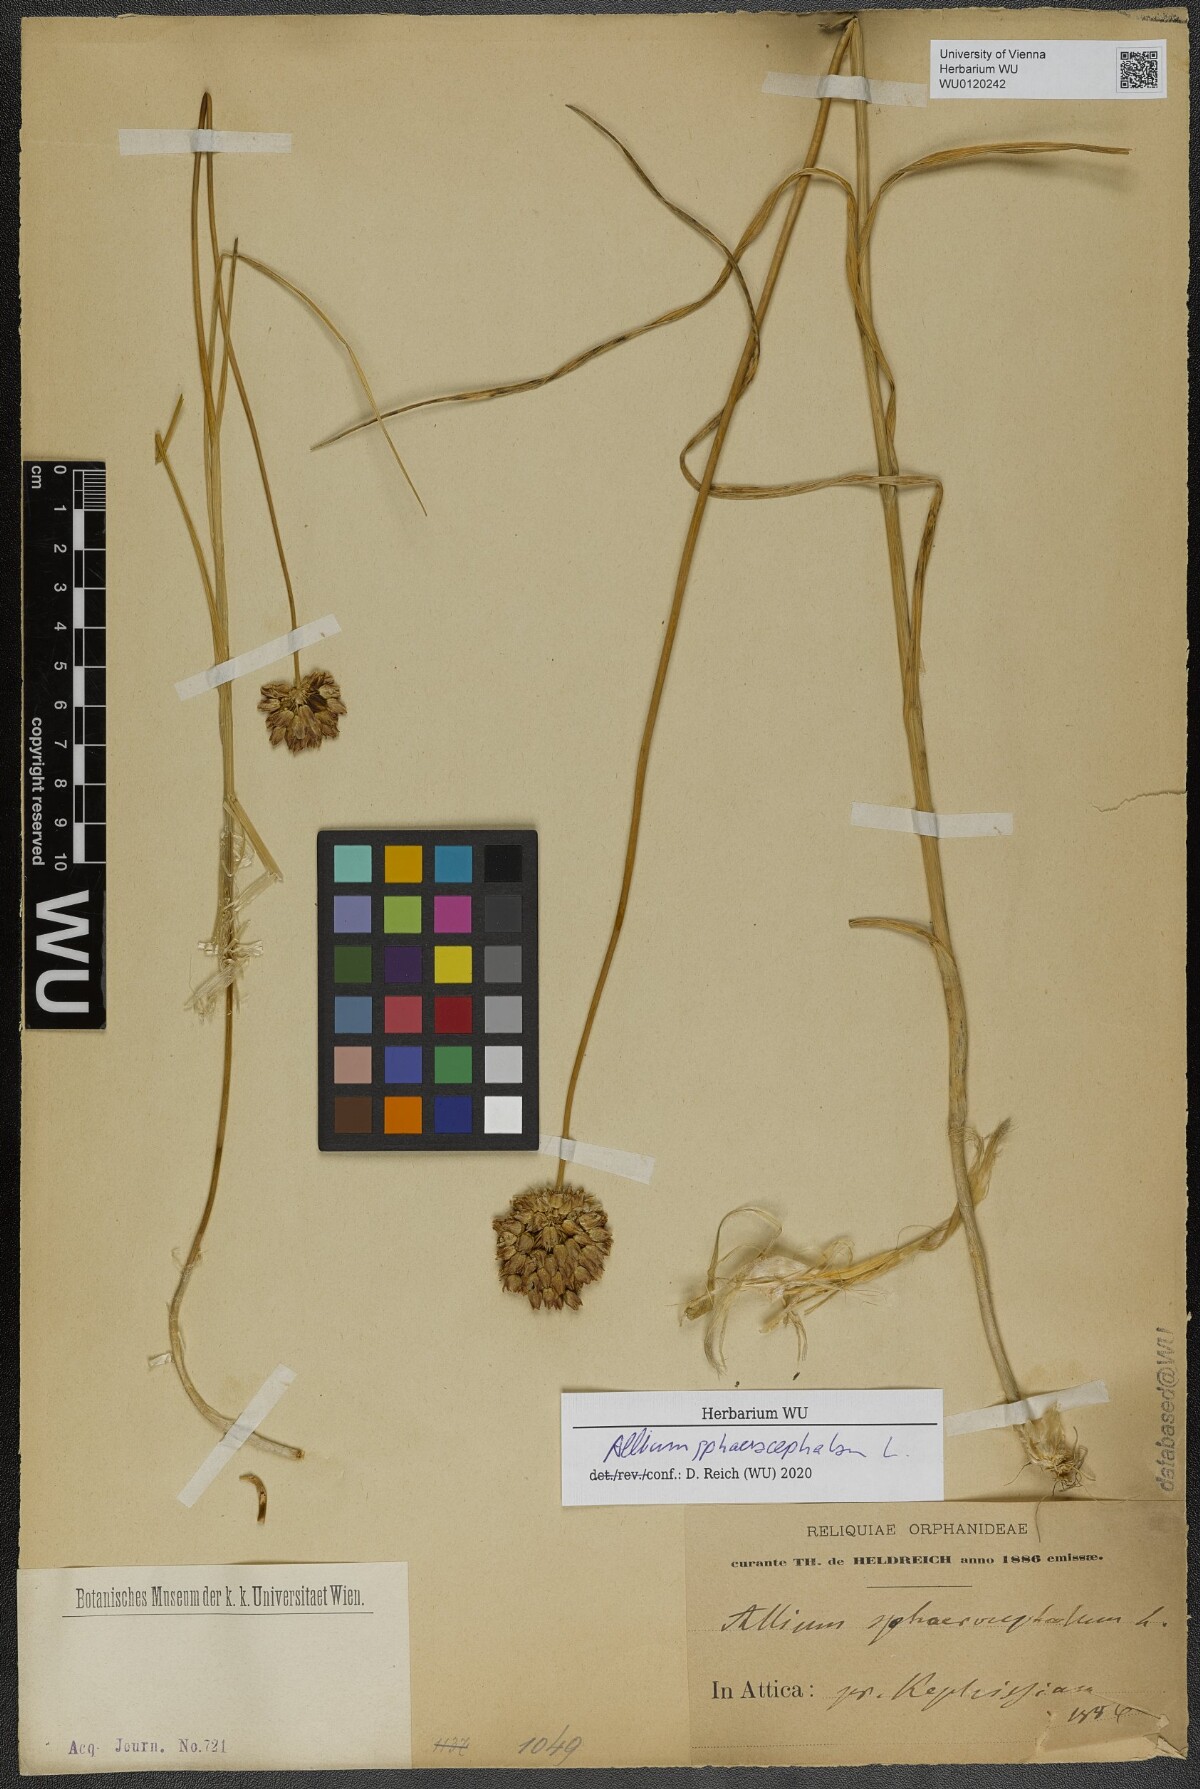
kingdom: Plantae
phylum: Tracheophyta
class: Liliopsida
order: Asparagales
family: Amaryllidaceae
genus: Allium
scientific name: Allium sphaerocephalon
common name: Round-headed leek
